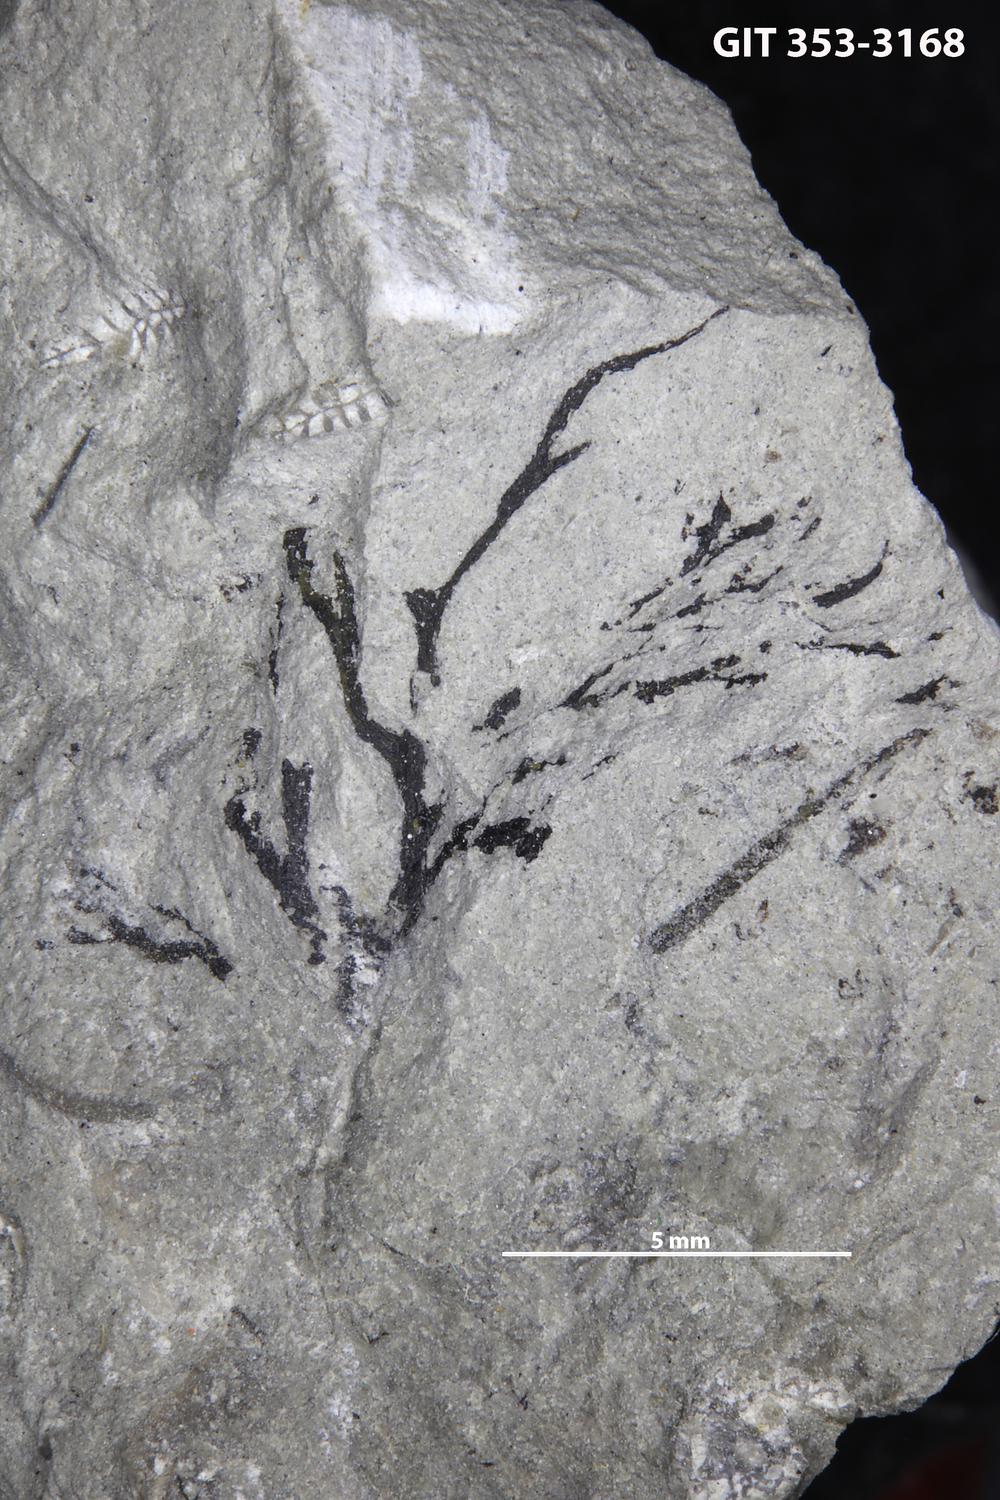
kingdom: Animalia
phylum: Hemichordata
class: Pterobranchia
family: Dendrograptidae
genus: Dendrograptus
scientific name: Dendrograptus
